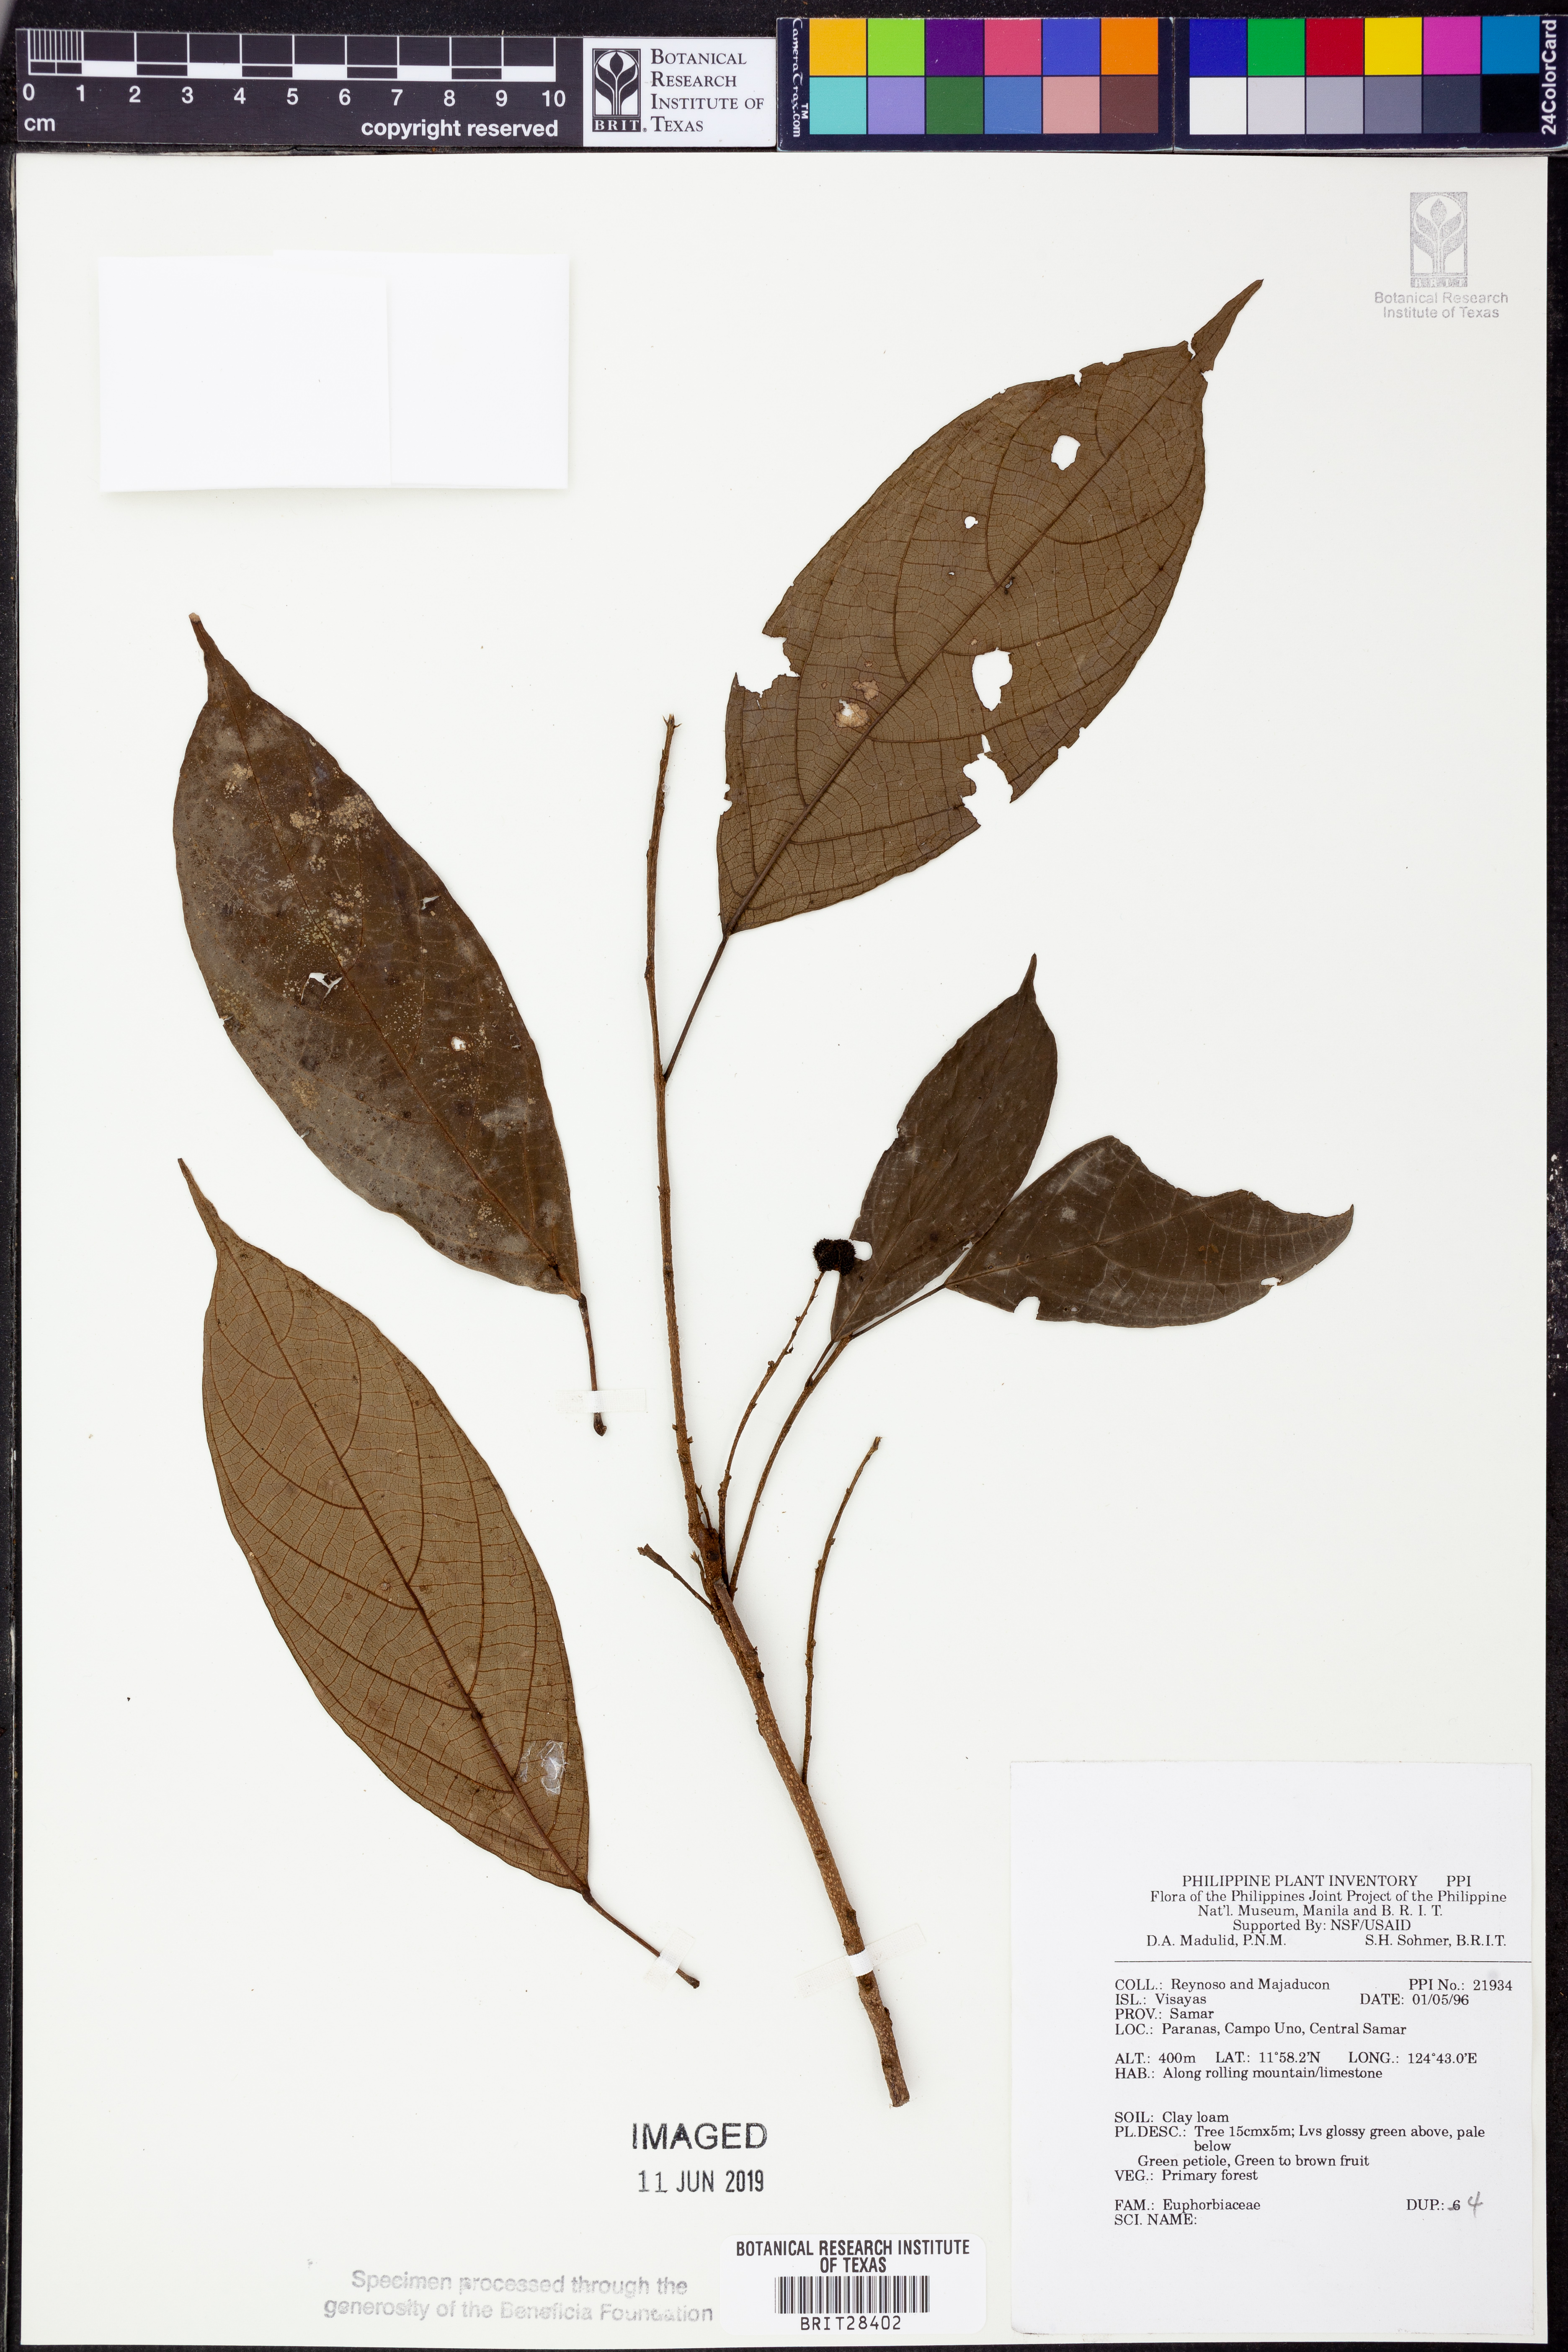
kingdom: Plantae
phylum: Tracheophyta
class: Magnoliopsida
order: Malpighiales
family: Euphorbiaceae
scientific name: Euphorbiaceae
